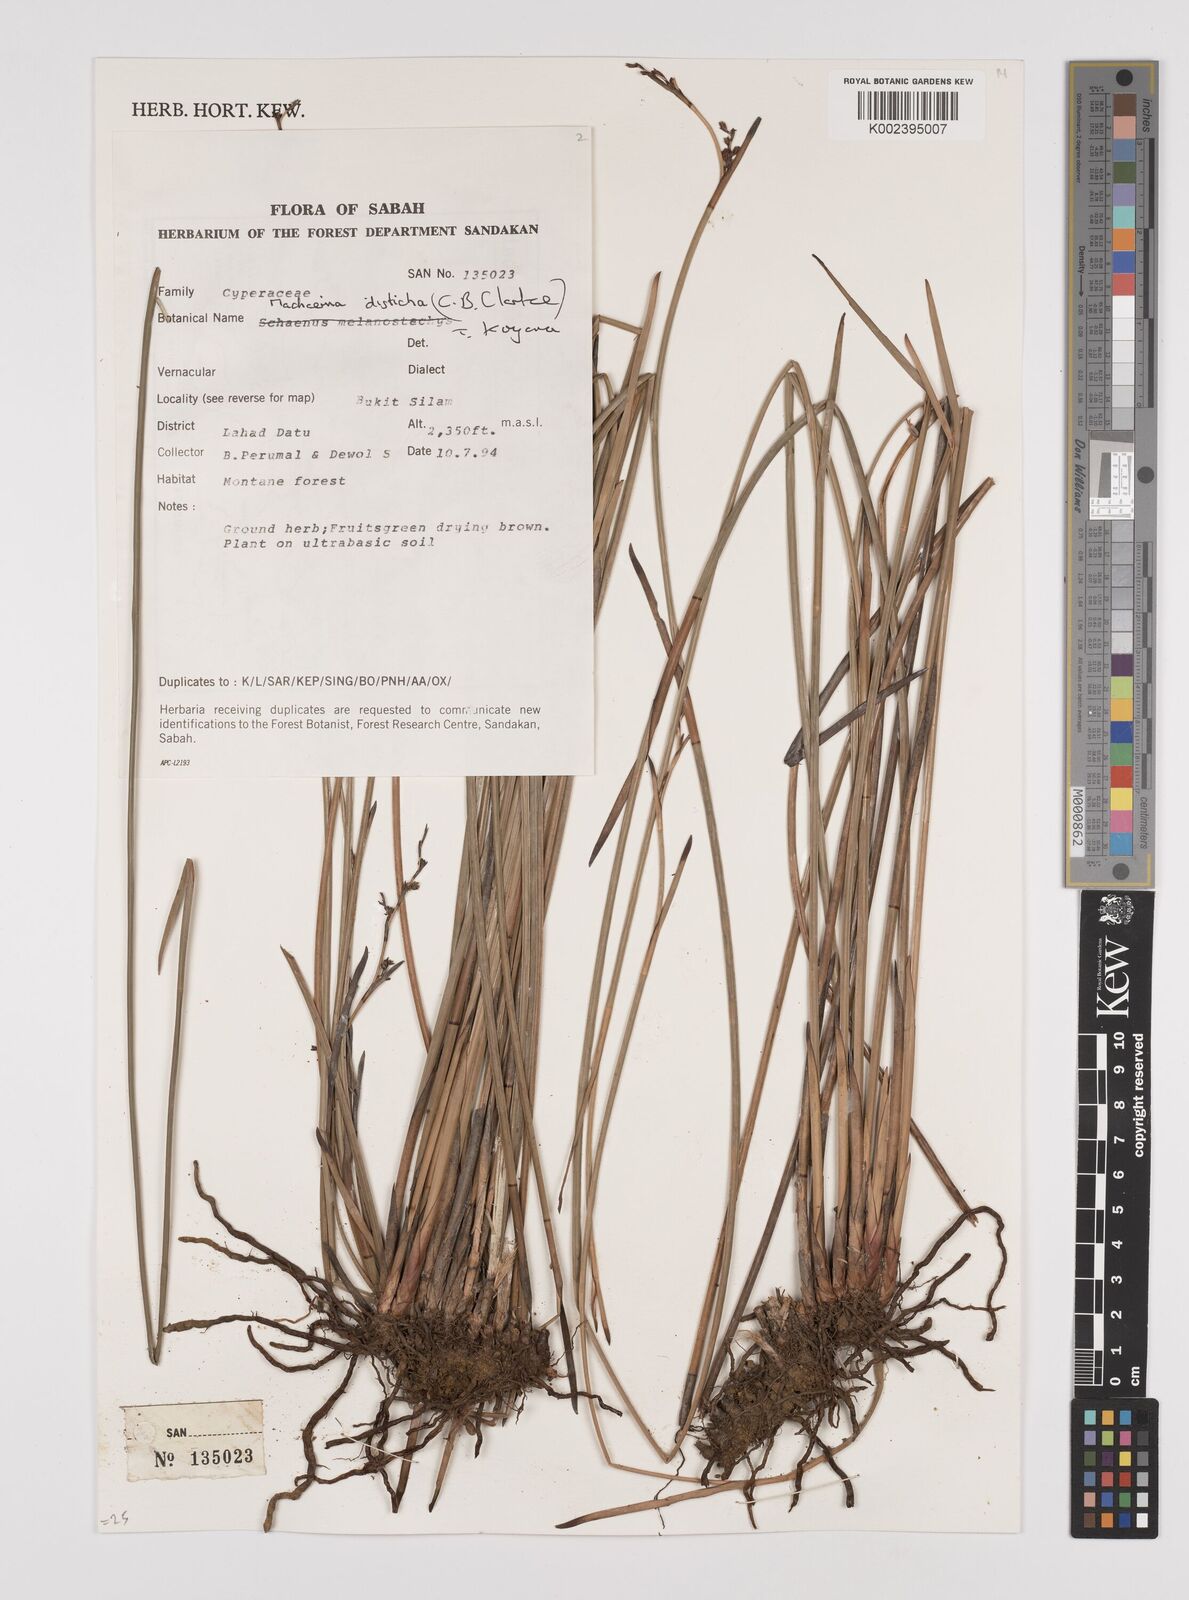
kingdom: Plantae
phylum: Tracheophyta
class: Liliopsida
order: Poales
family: Cyperaceae
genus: Machaerina
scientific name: Machaerina disticha
